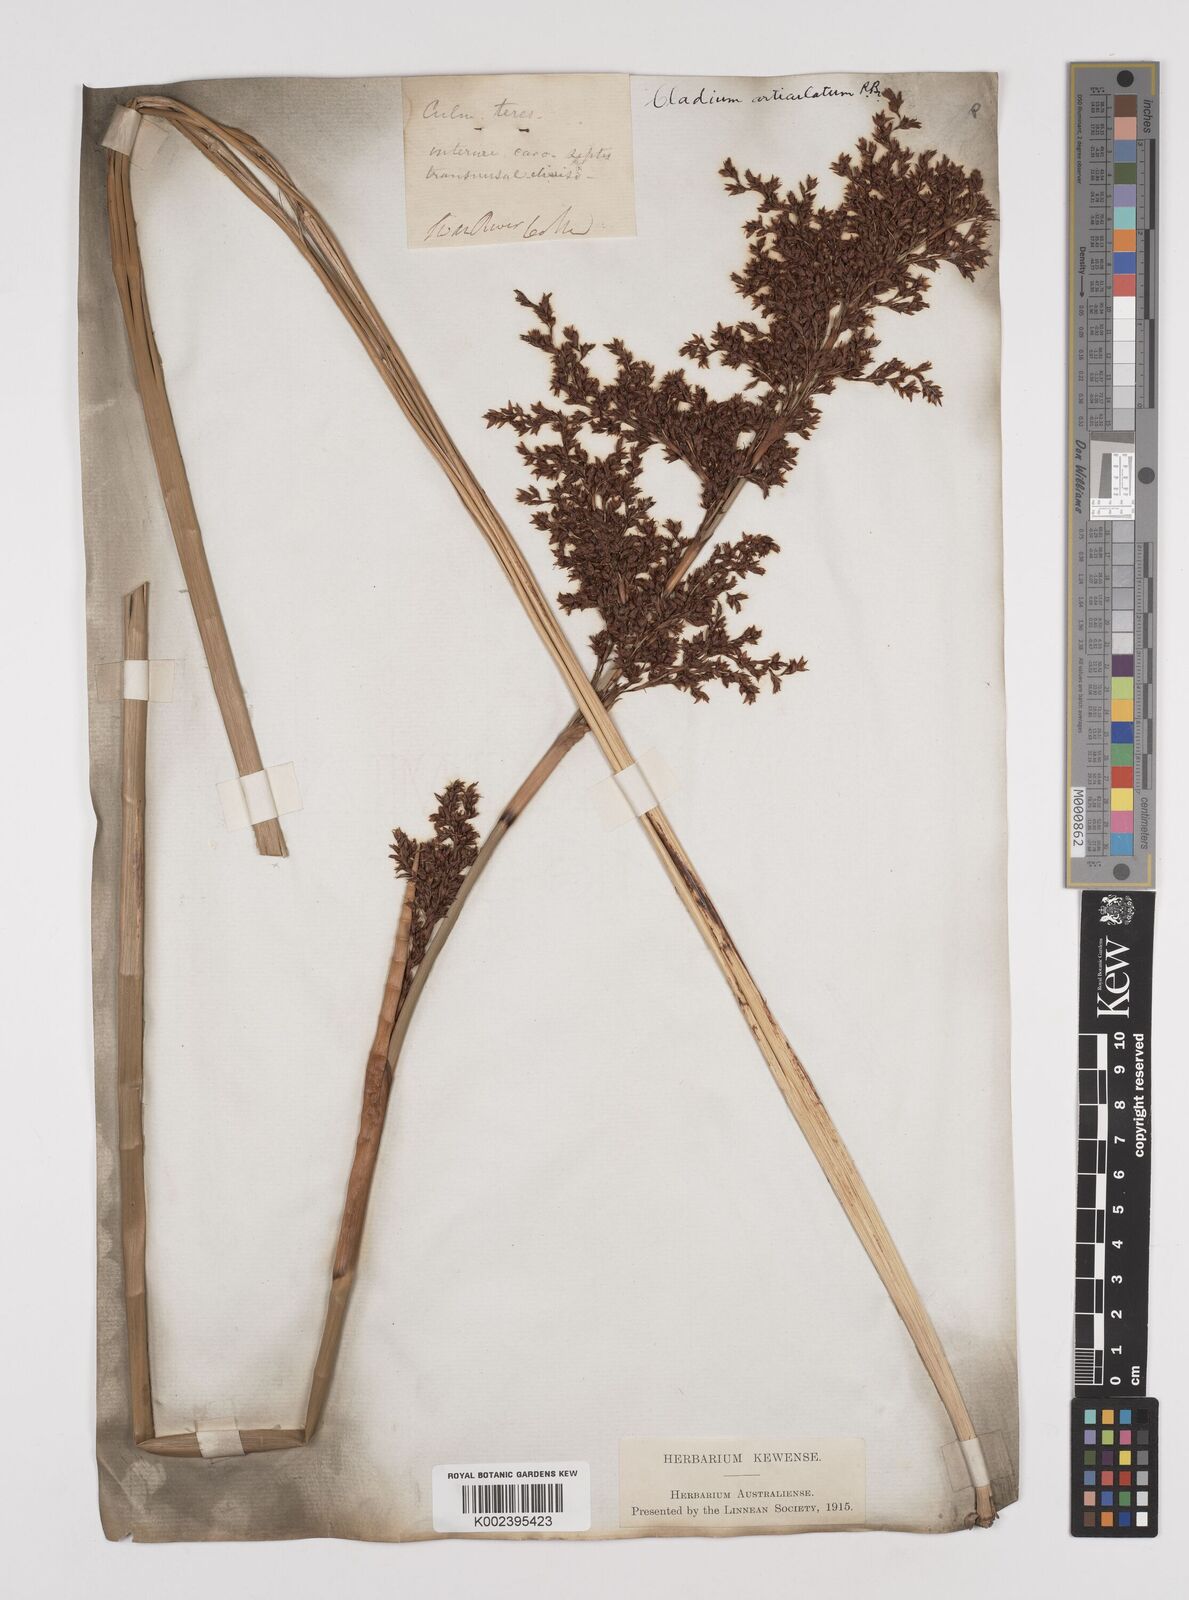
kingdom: Plantae
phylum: Tracheophyta
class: Liliopsida
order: Poales
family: Cyperaceae
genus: Machaerina
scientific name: Machaerina articulata
